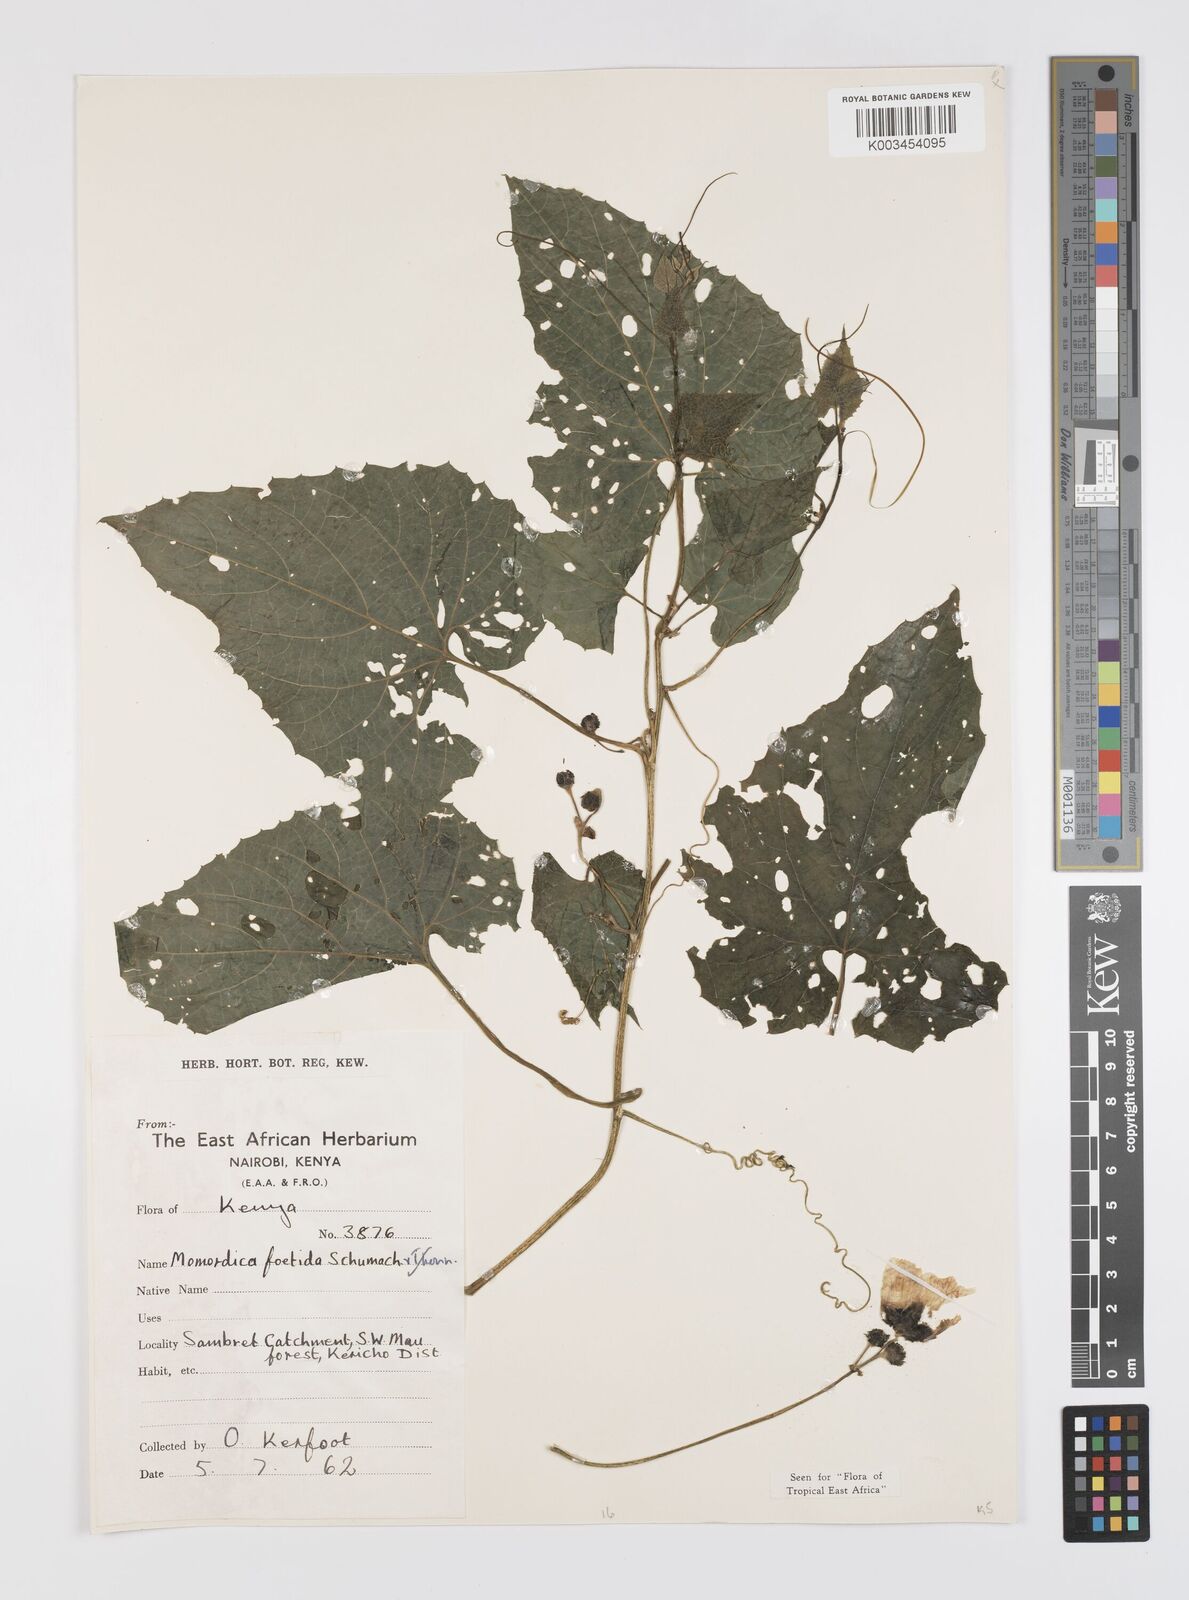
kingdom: Plantae
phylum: Tracheophyta
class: Magnoliopsida
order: Cucurbitales
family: Cucurbitaceae
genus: Momordica
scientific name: Momordica foetida
